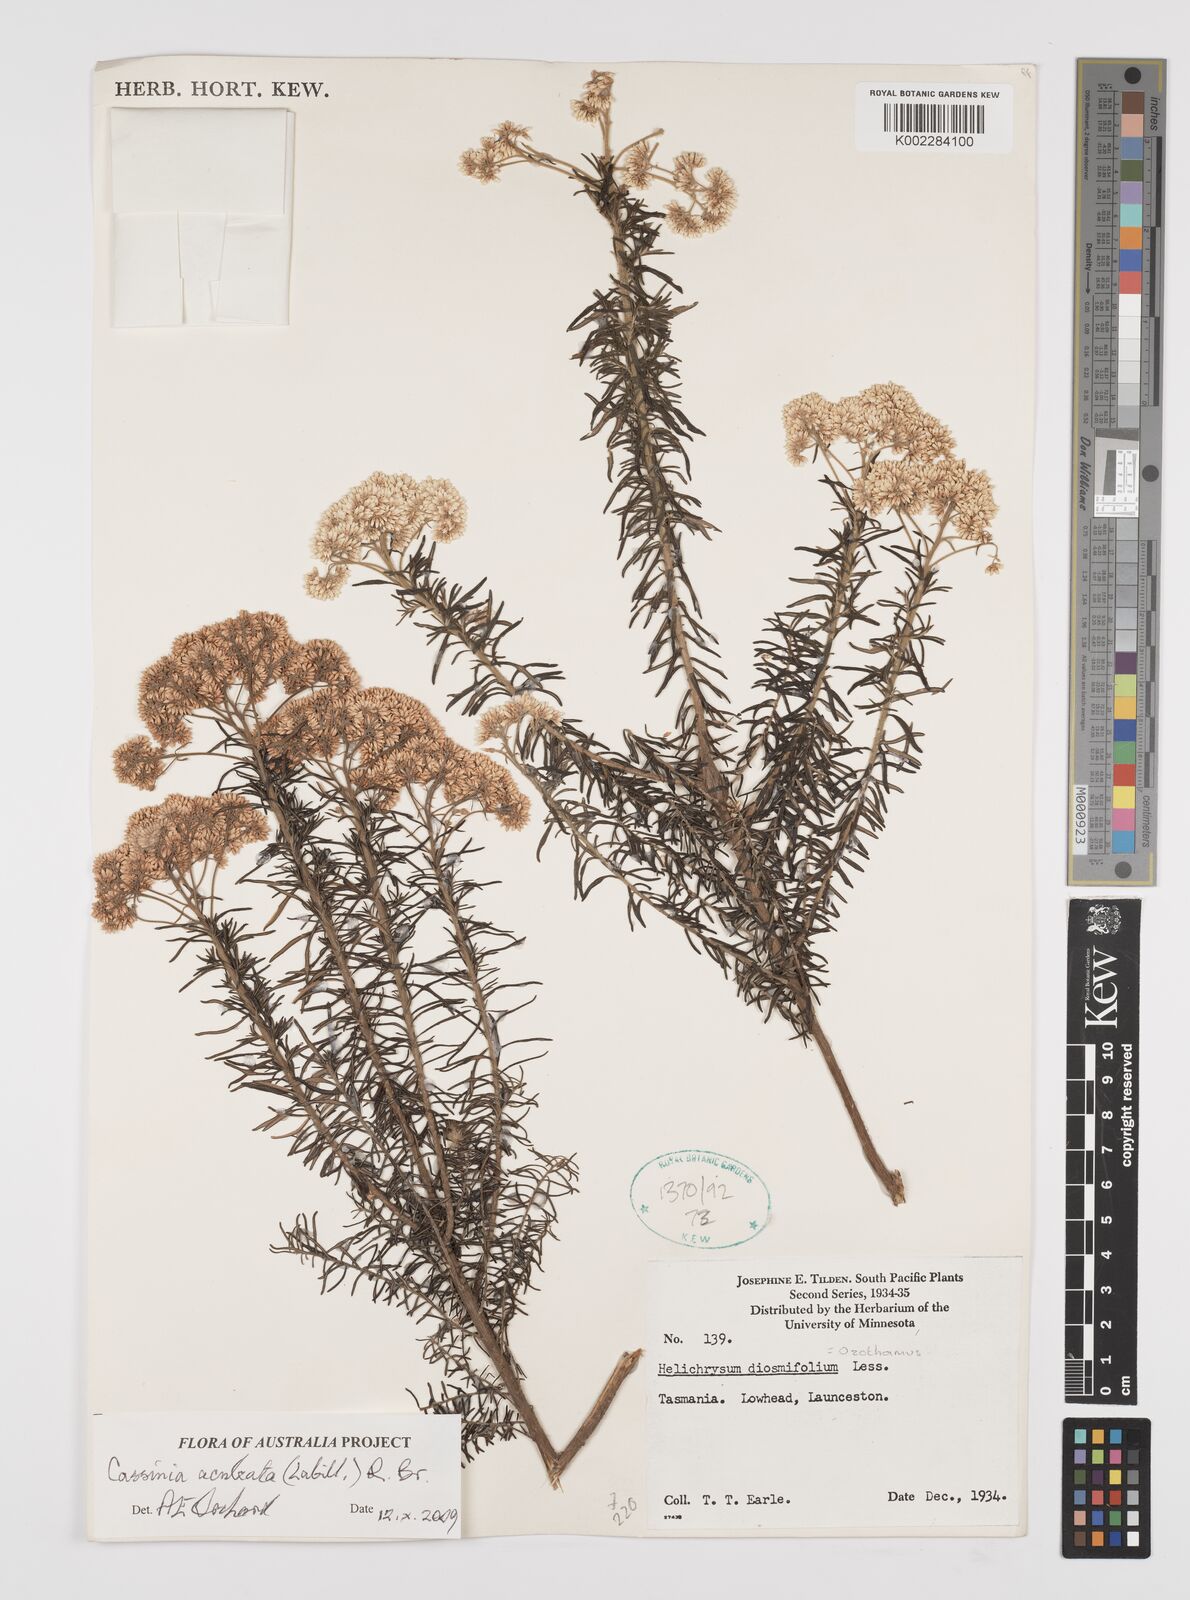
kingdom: Plantae
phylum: Tracheophyta
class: Magnoliopsida
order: Asterales
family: Asteraceae
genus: Cassinia
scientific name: Cassinia aculeata
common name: Australian tauhinu
